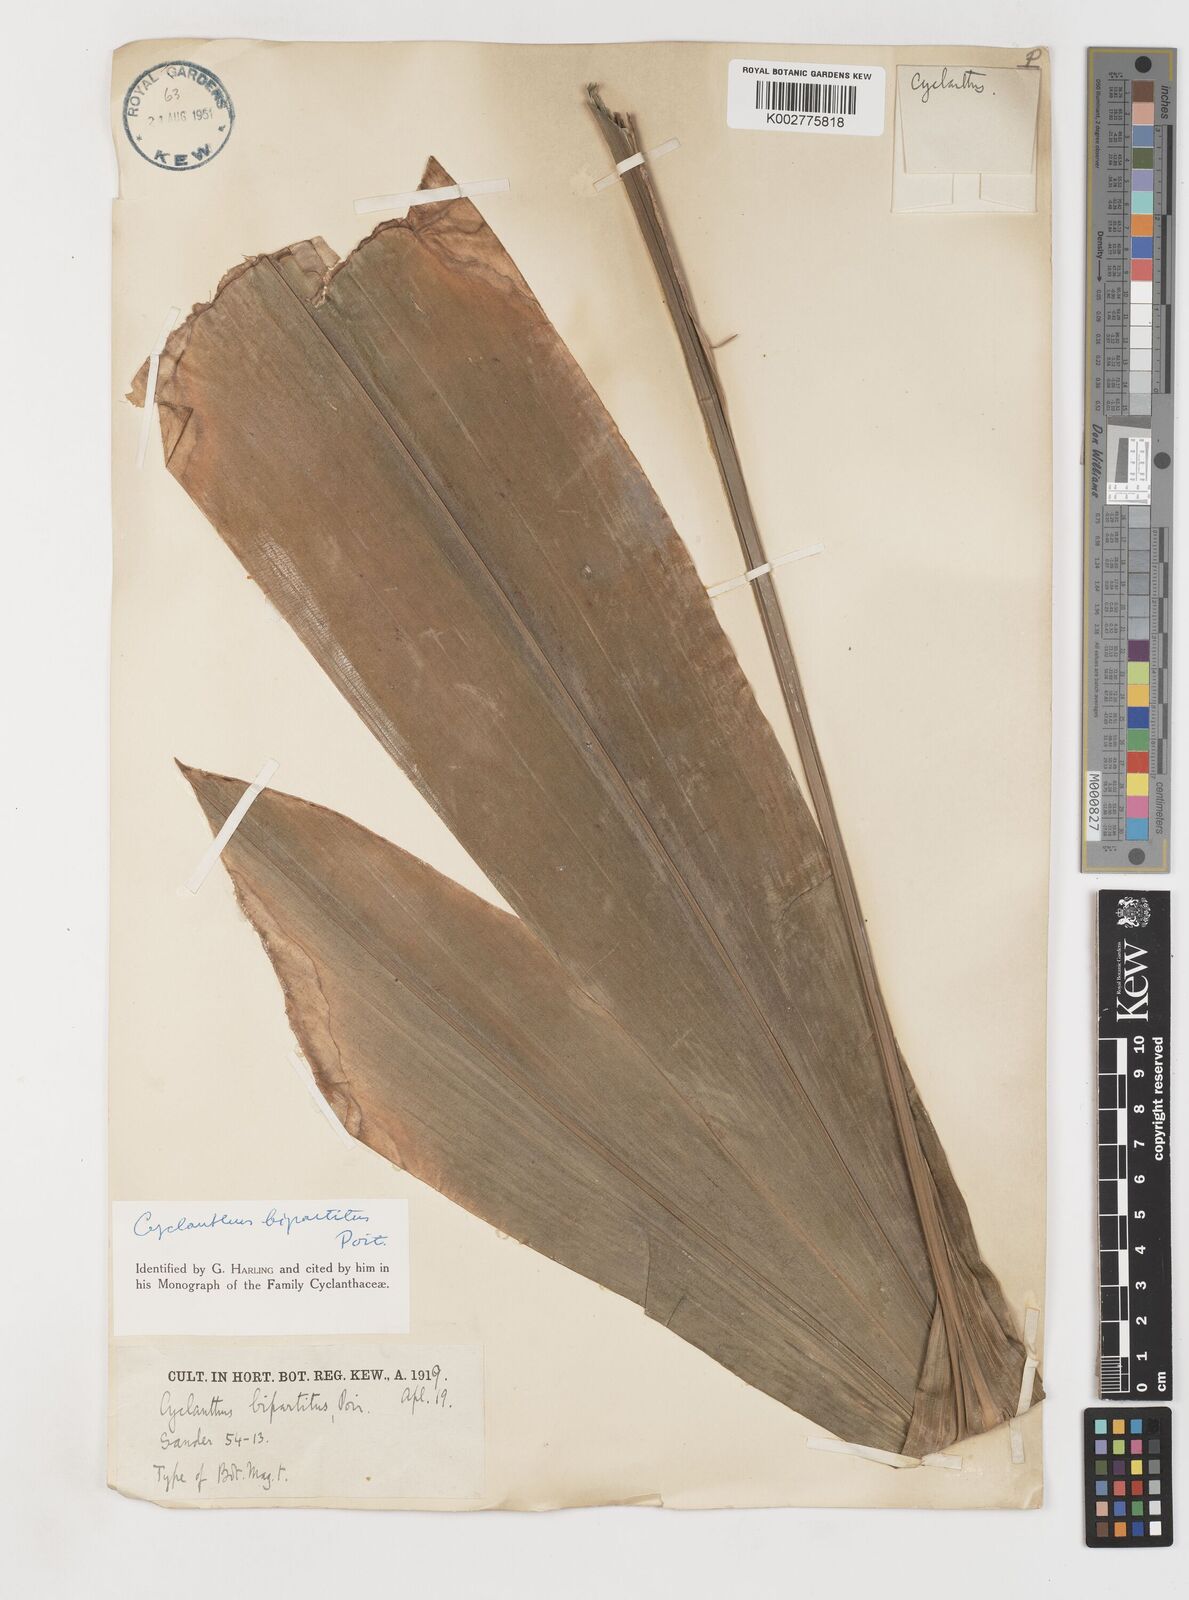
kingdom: Plantae
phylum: Tracheophyta
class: Liliopsida
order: Pandanales
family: Cyclanthaceae
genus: Cyclanthus
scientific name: Cyclanthus bipartitus
